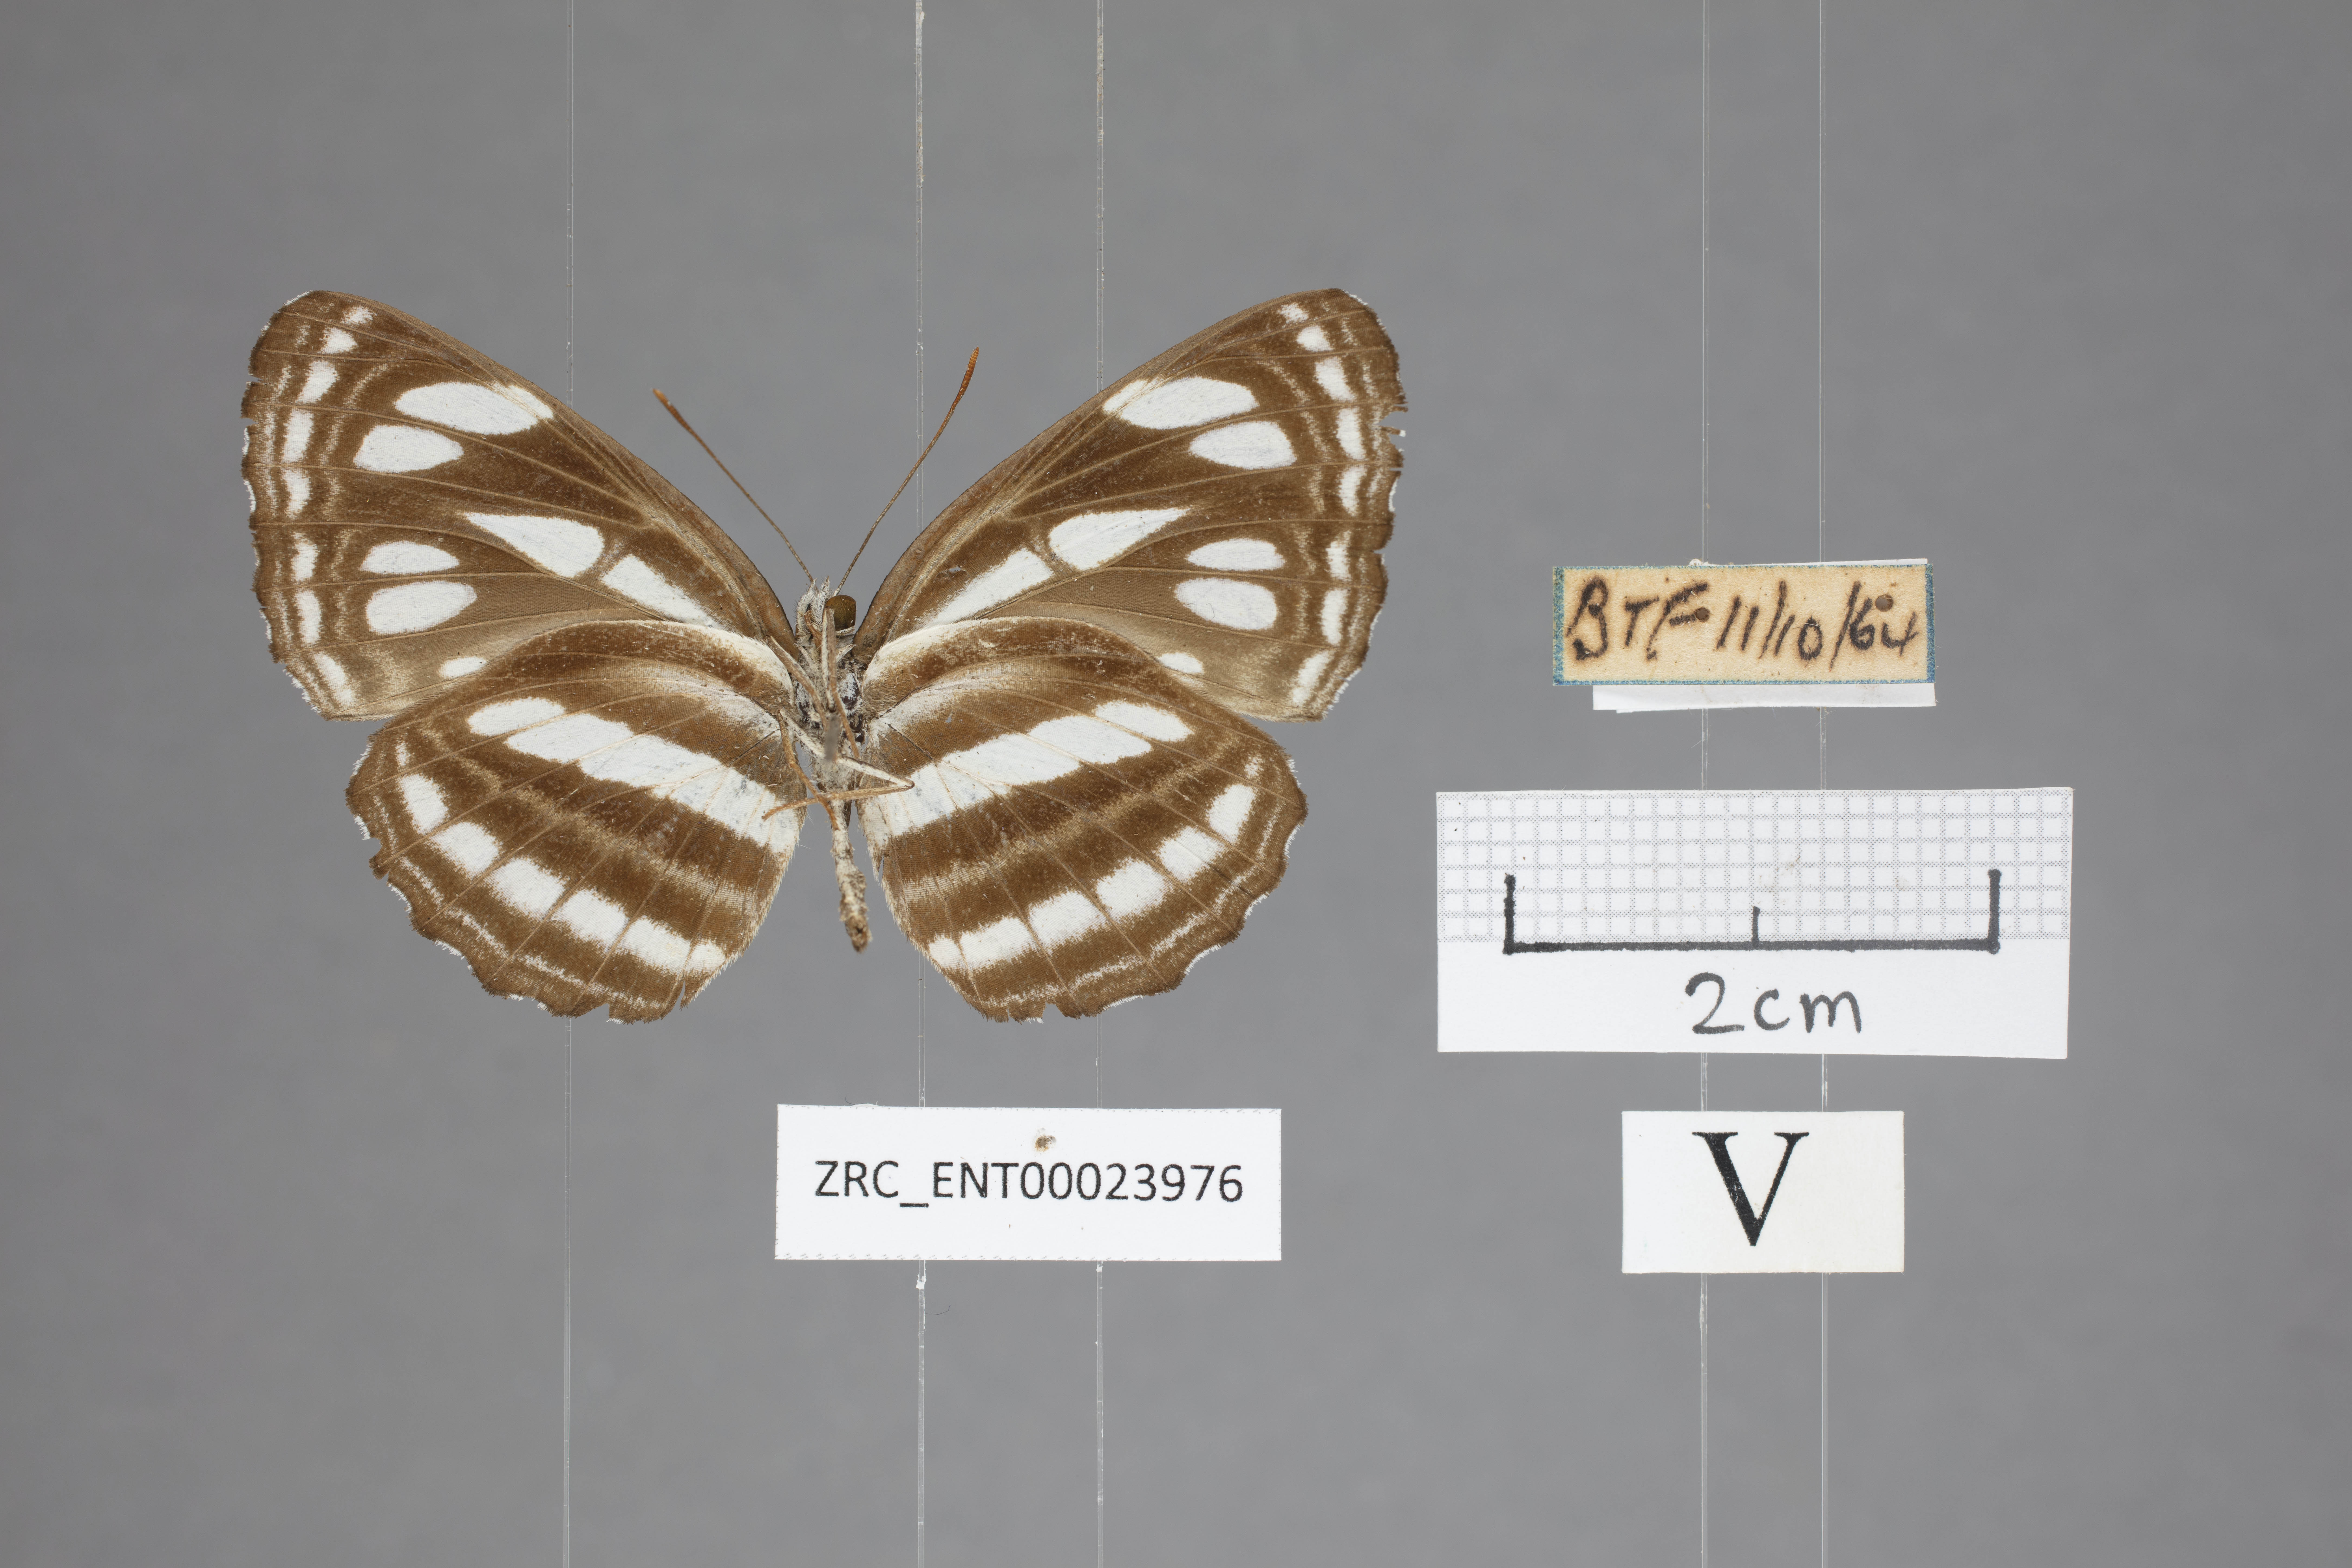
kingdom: Animalia
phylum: Arthropoda
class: Insecta
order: Lepidoptera
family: Nymphalidae
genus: Neptis
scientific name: Neptis duryodana
